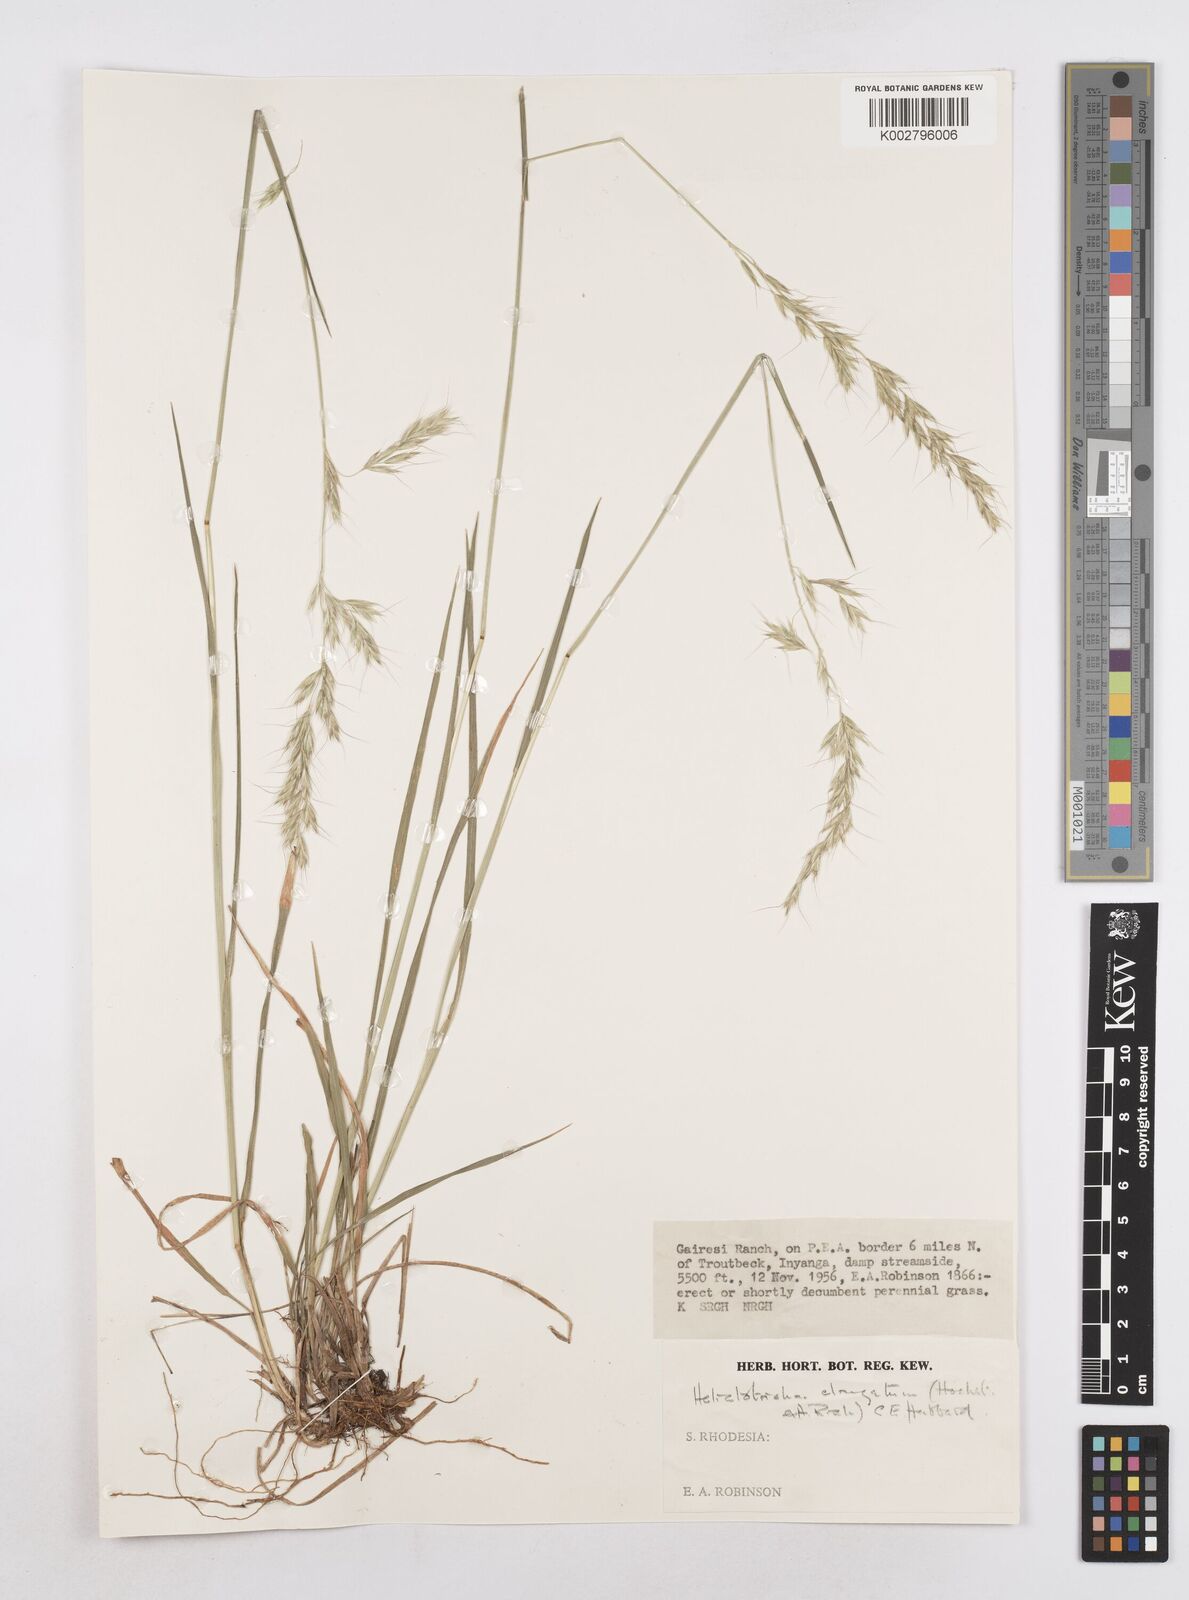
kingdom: Plantae
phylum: Tracheophyta
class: Liliopsida
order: Poales
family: Poaceae
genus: Trisetopsis
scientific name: Trisetopsis elongata
